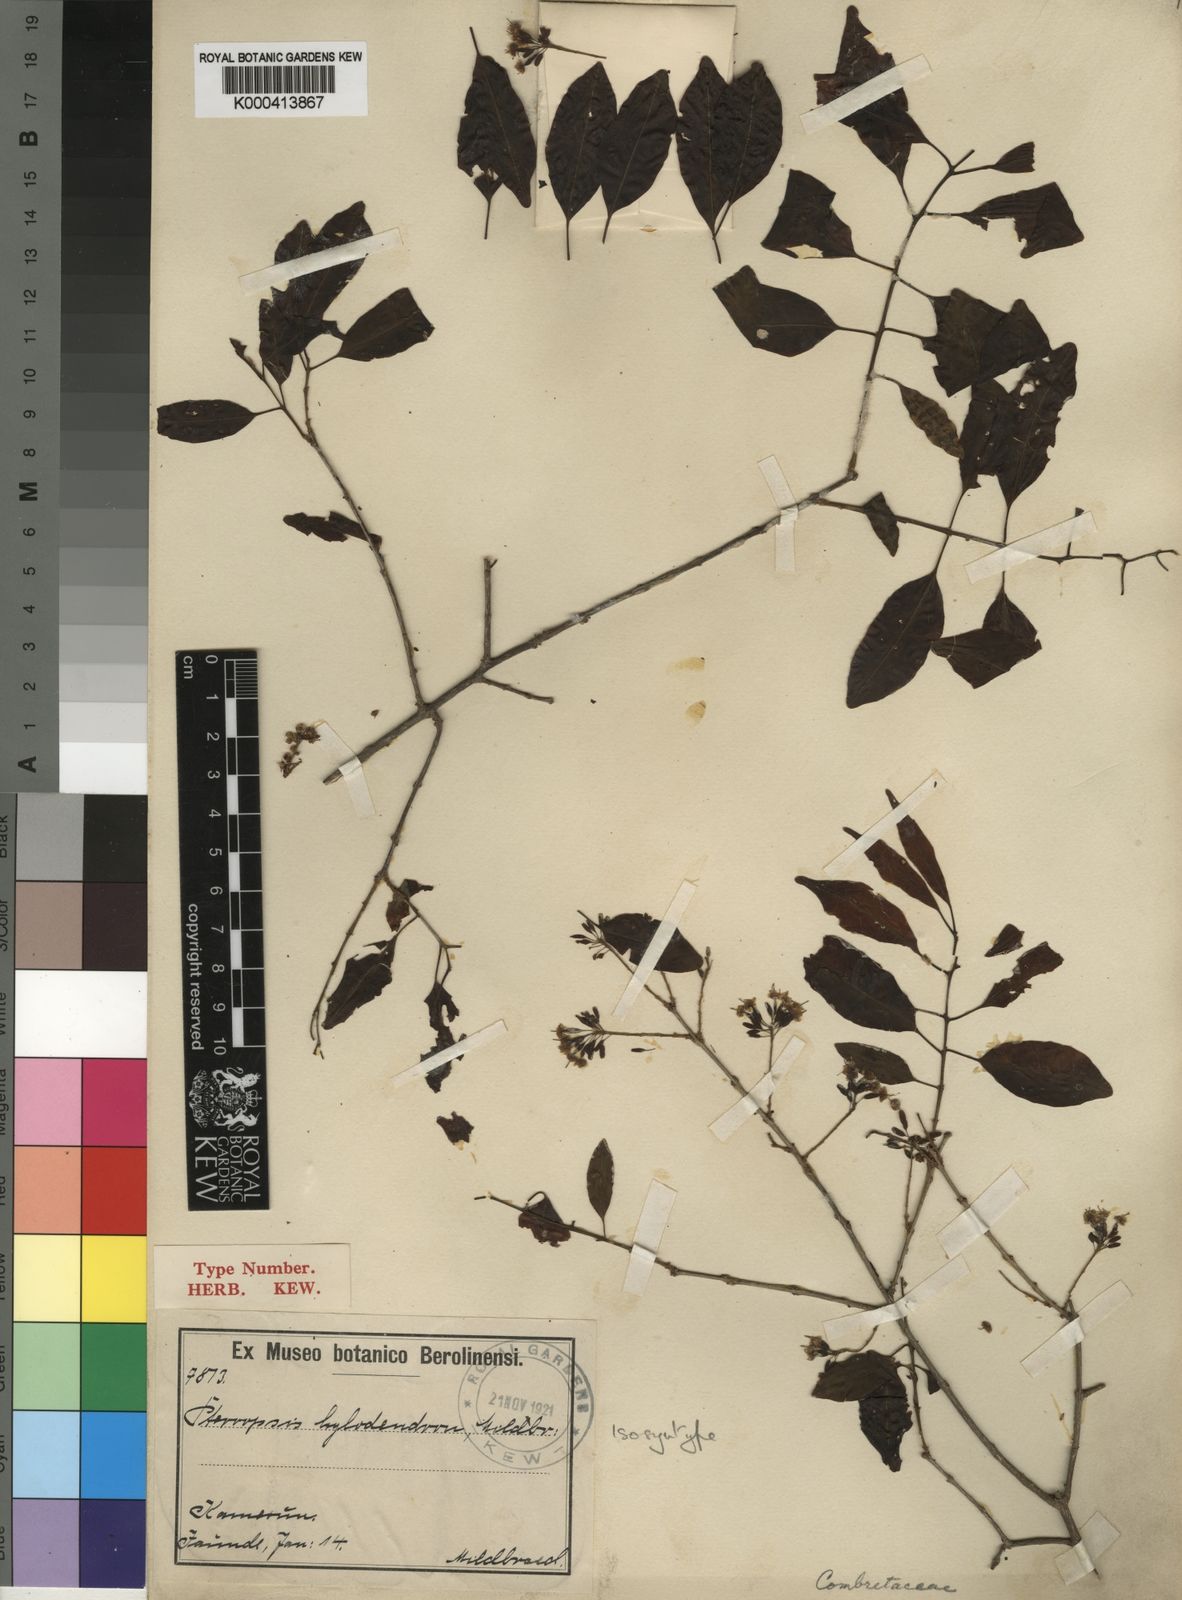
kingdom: Plantae
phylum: Tracheophyta
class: Magnoliopsida
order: Myrtales
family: Combretaceae
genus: Terminalia
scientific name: Terminalia hylodendron
